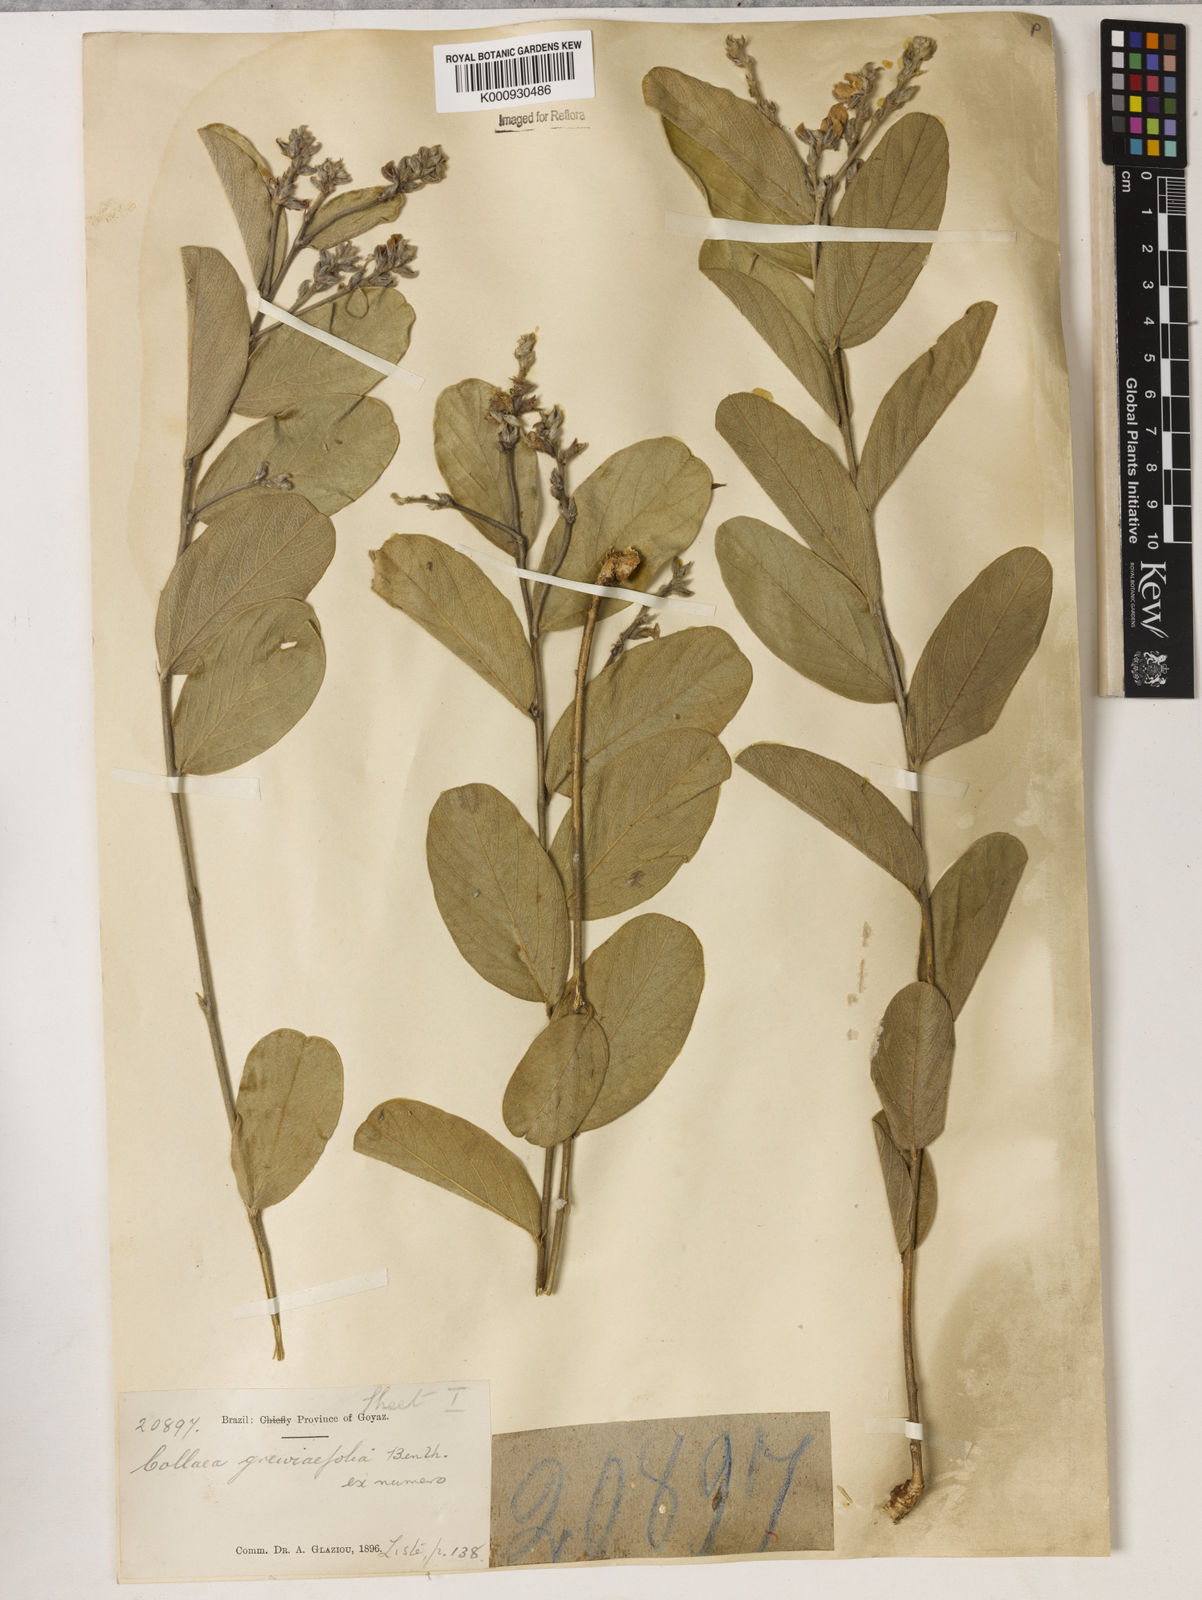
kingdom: Plantae
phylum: Tracheophyta
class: Magnoliopsida
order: Fabales
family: Fabaceae
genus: Galactia
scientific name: Galactia
